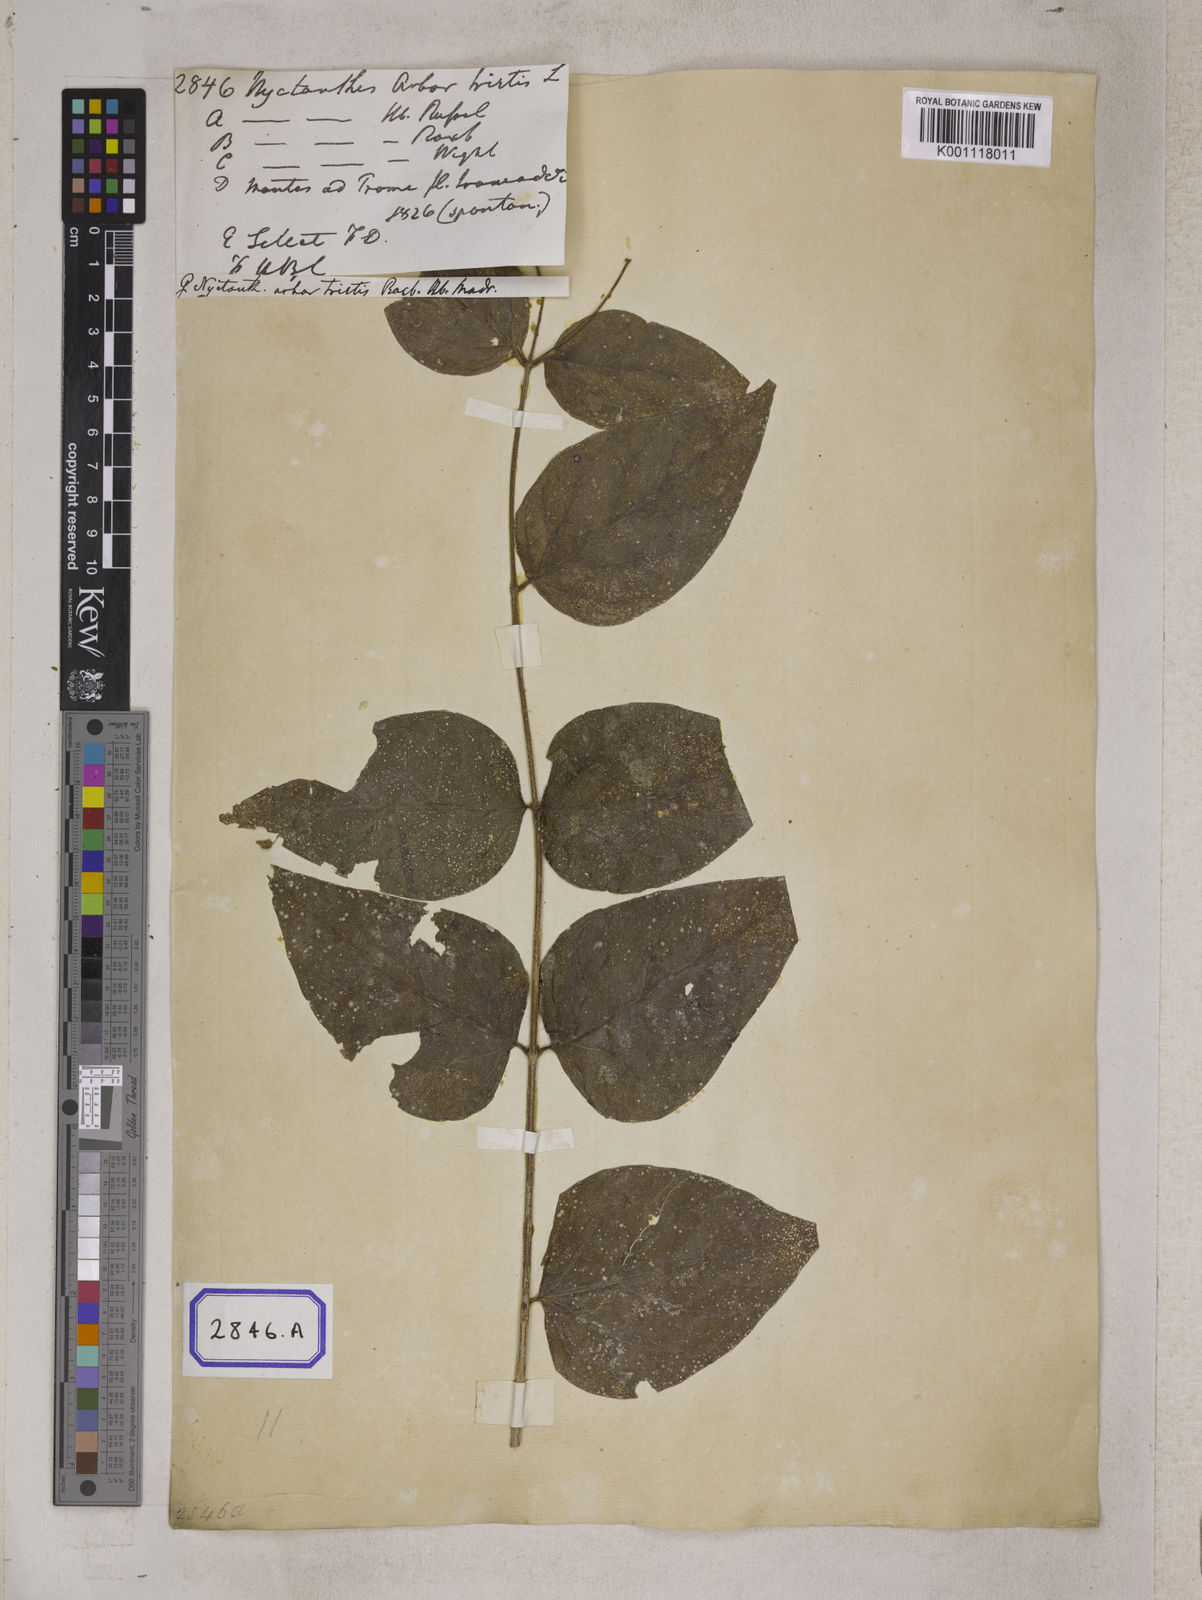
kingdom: Plantae
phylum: Tracheophyta
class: Magnoliopsida
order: Lamiales
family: Oleaceae
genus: Nyctanthes
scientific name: Nyctanthes arbor-tristis
